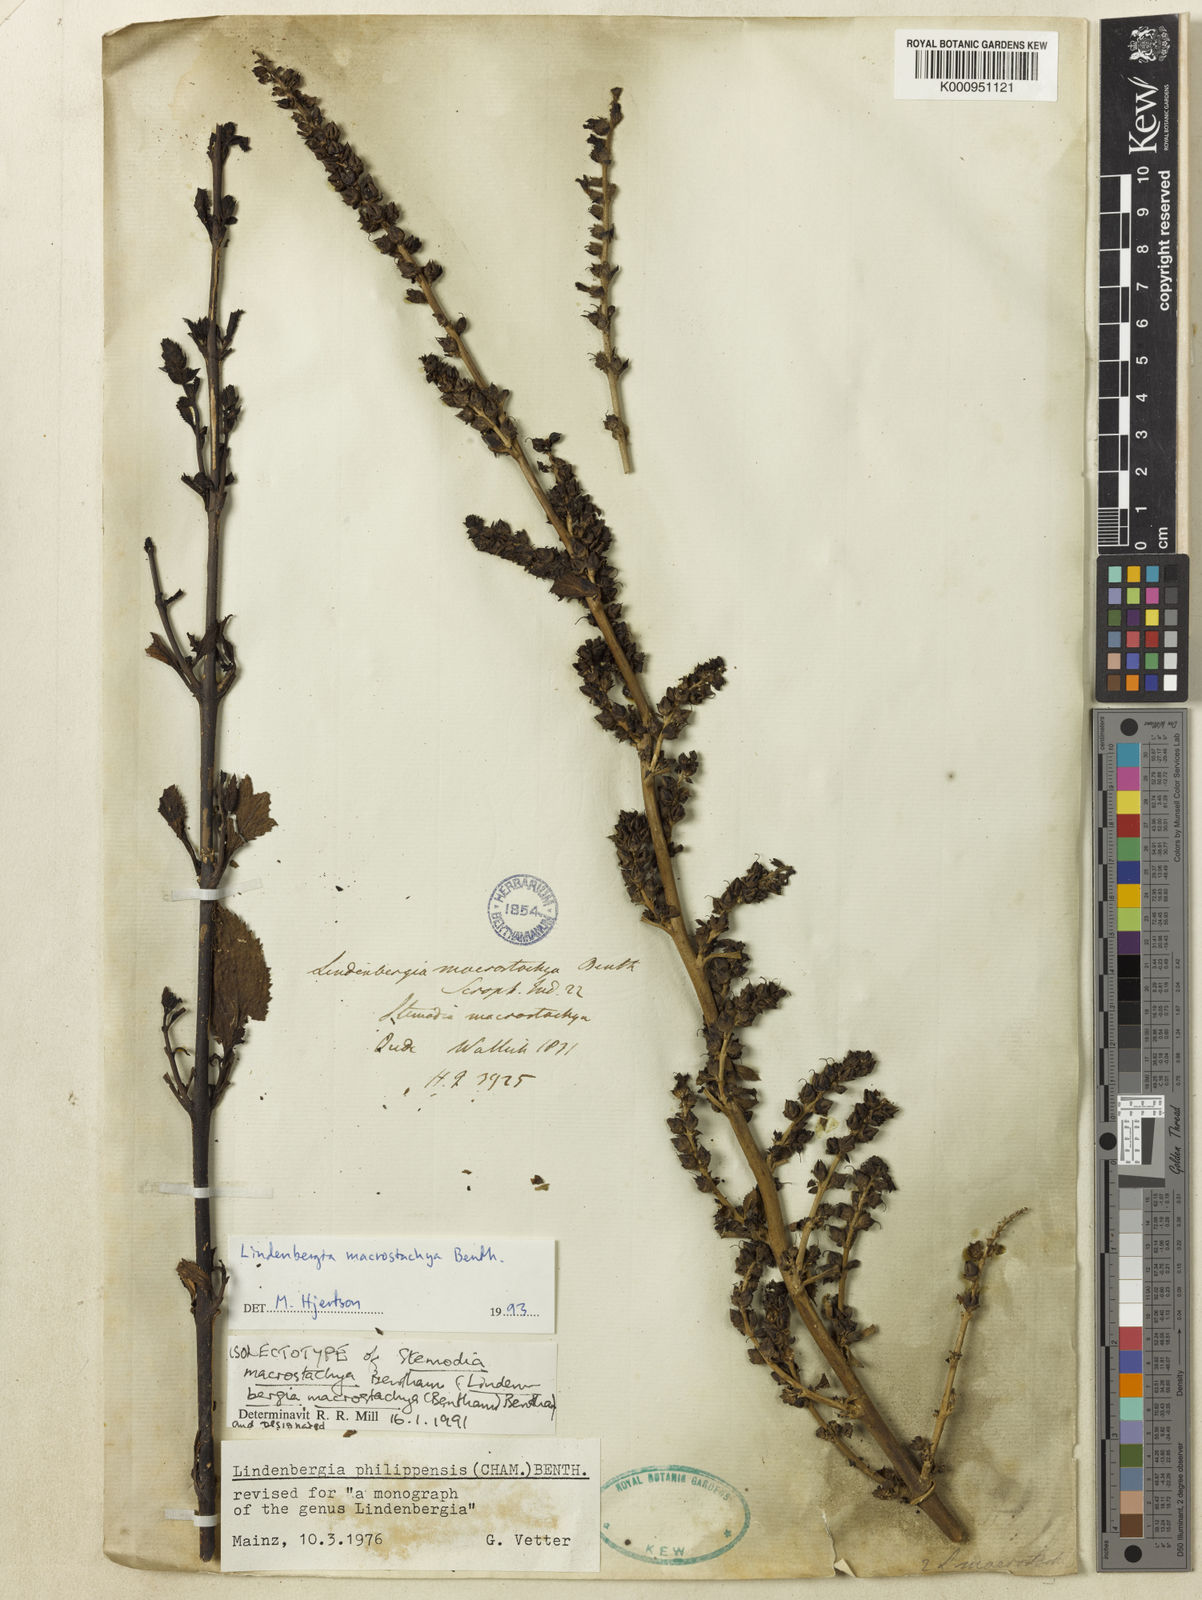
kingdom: Plantae
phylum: Tracheophyta
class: Magnoliopsida
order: Lamiales
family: Orobanchaceae
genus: Lindenbergia
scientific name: Lindenbergia macrostachya
